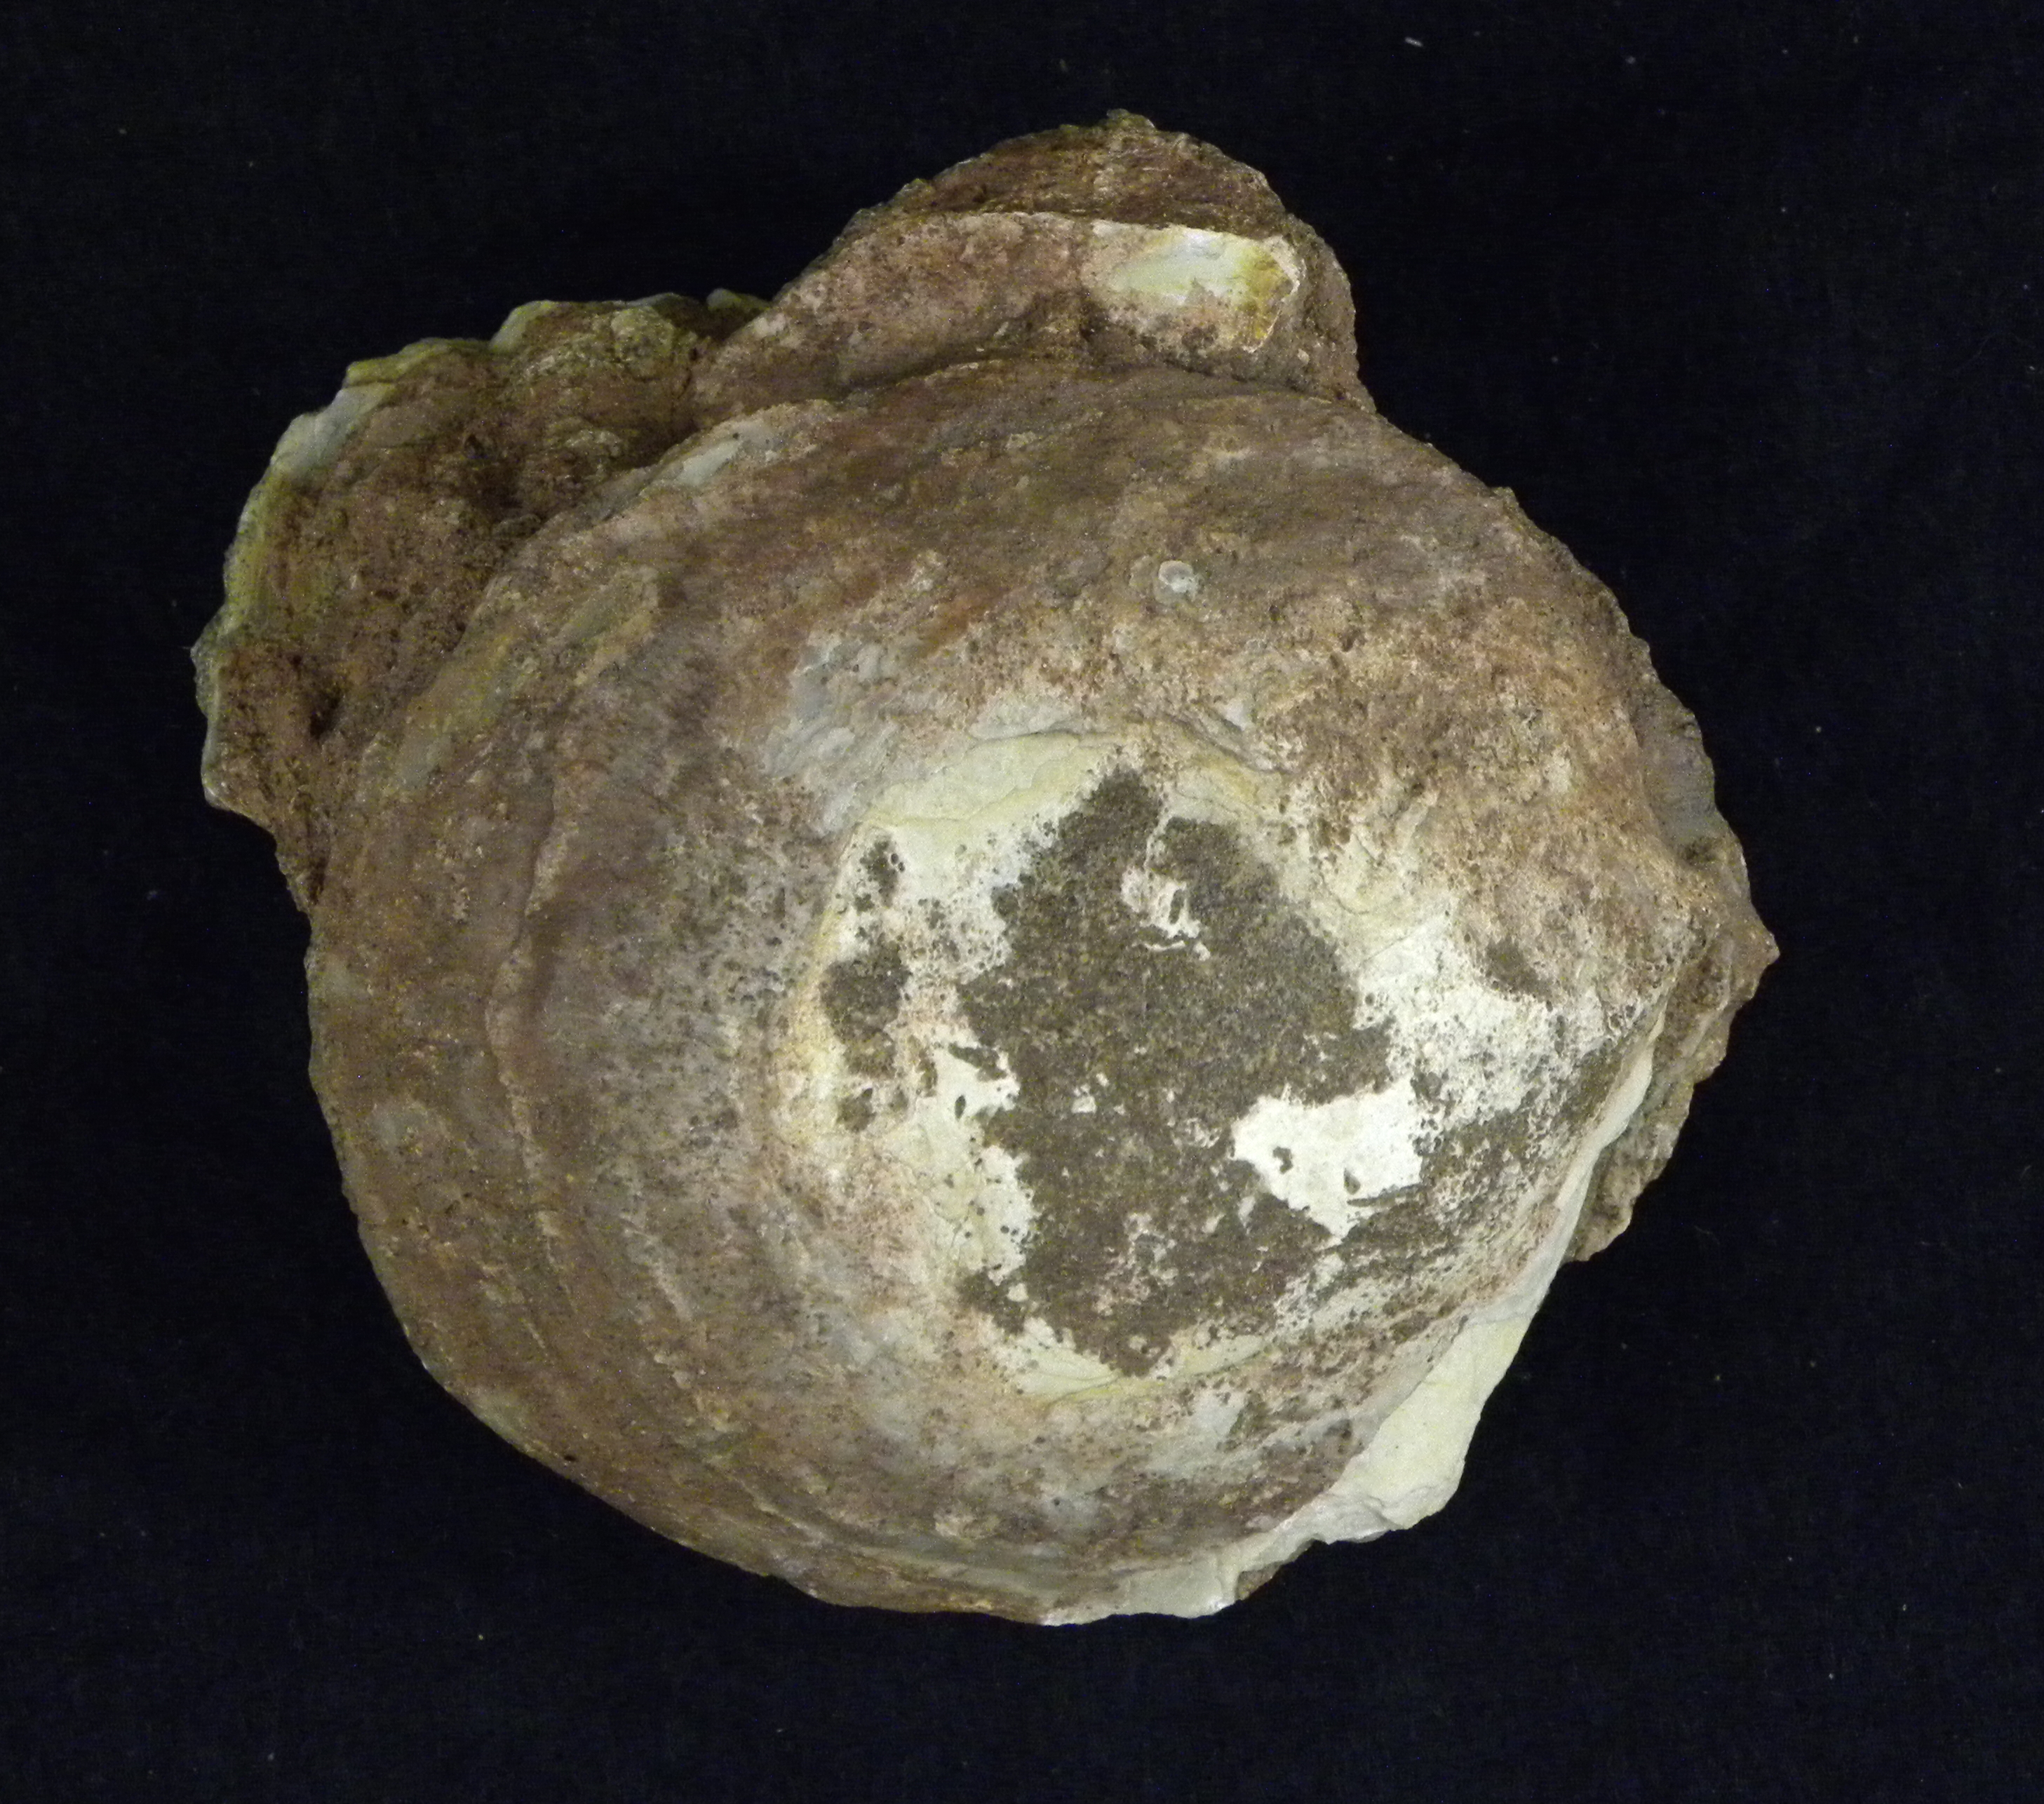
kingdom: Animalia
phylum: Mollusca
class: Bivalvia
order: Ostreida
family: Gryphaeidae
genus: Gryphaea
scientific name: Gryphaea
